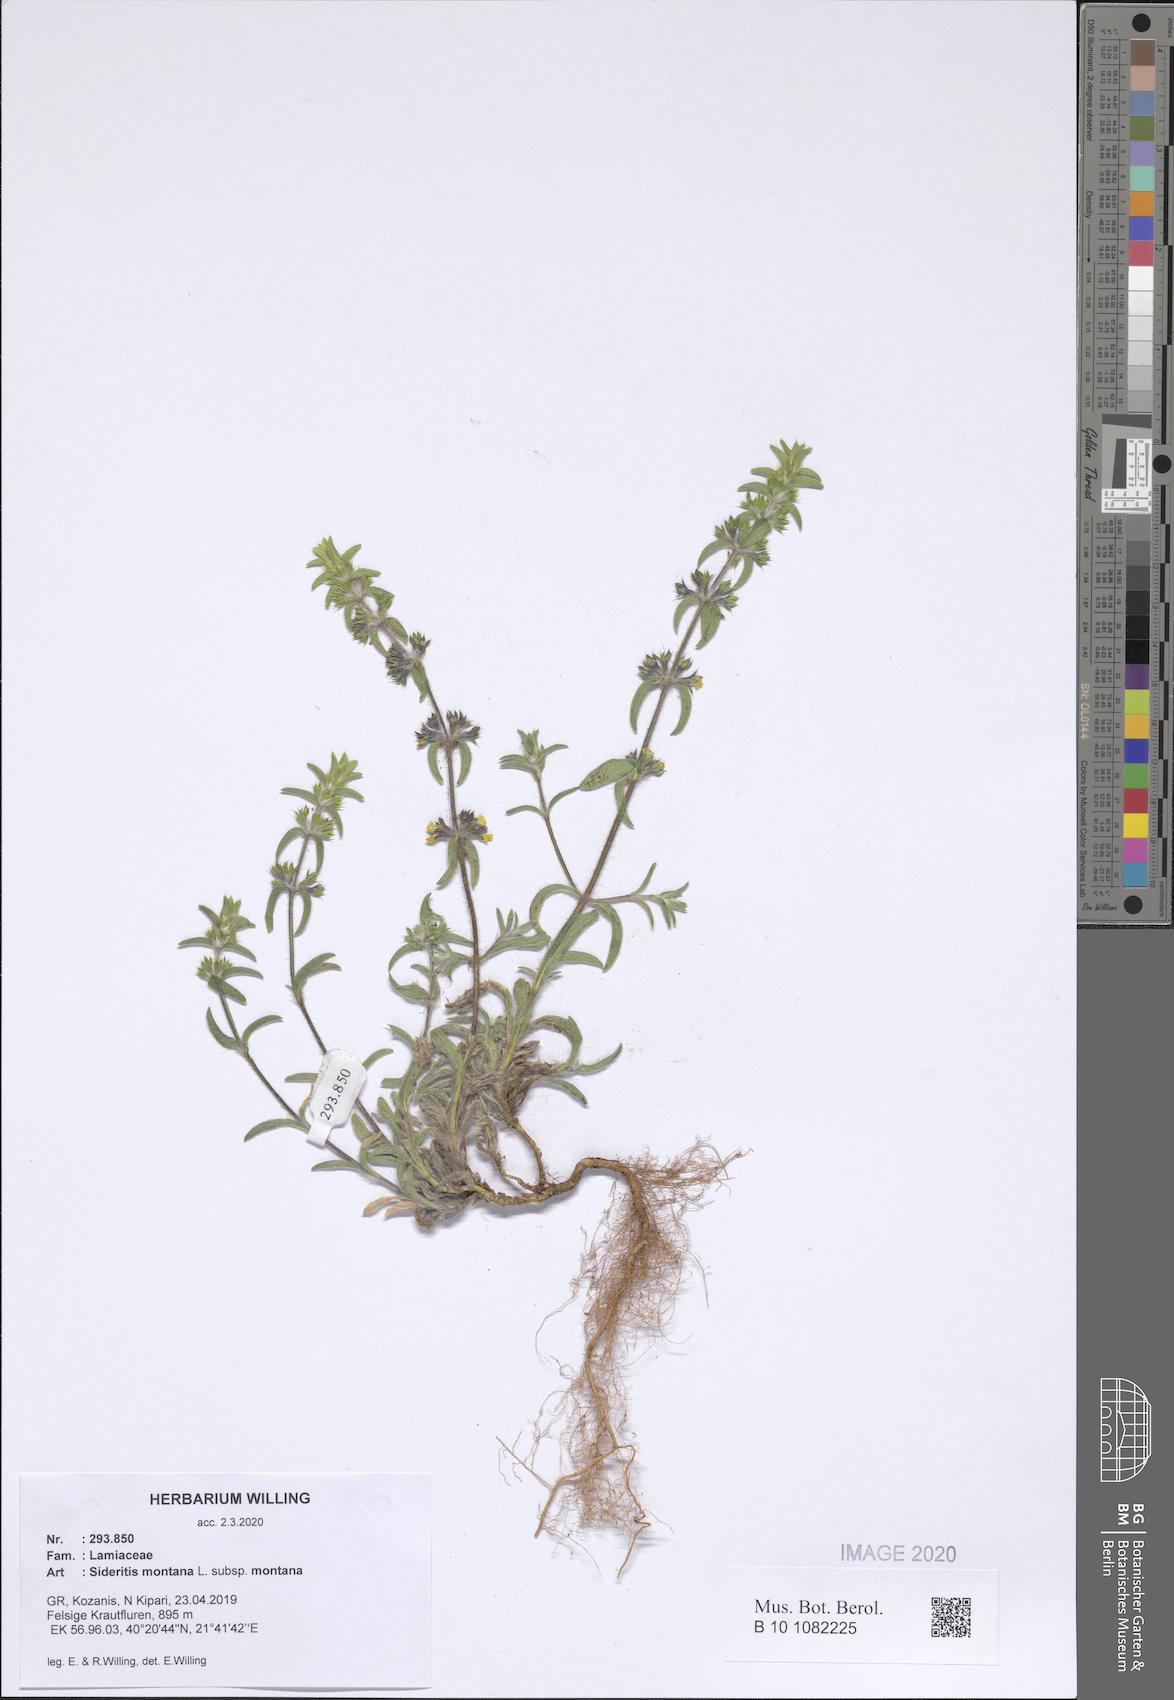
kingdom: Plantae
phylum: Tracheophyta
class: Magnoliopsida
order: Lamiales
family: Lamiaceae
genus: Sideritis
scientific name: Sideritis montana
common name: Mountain ironwort
